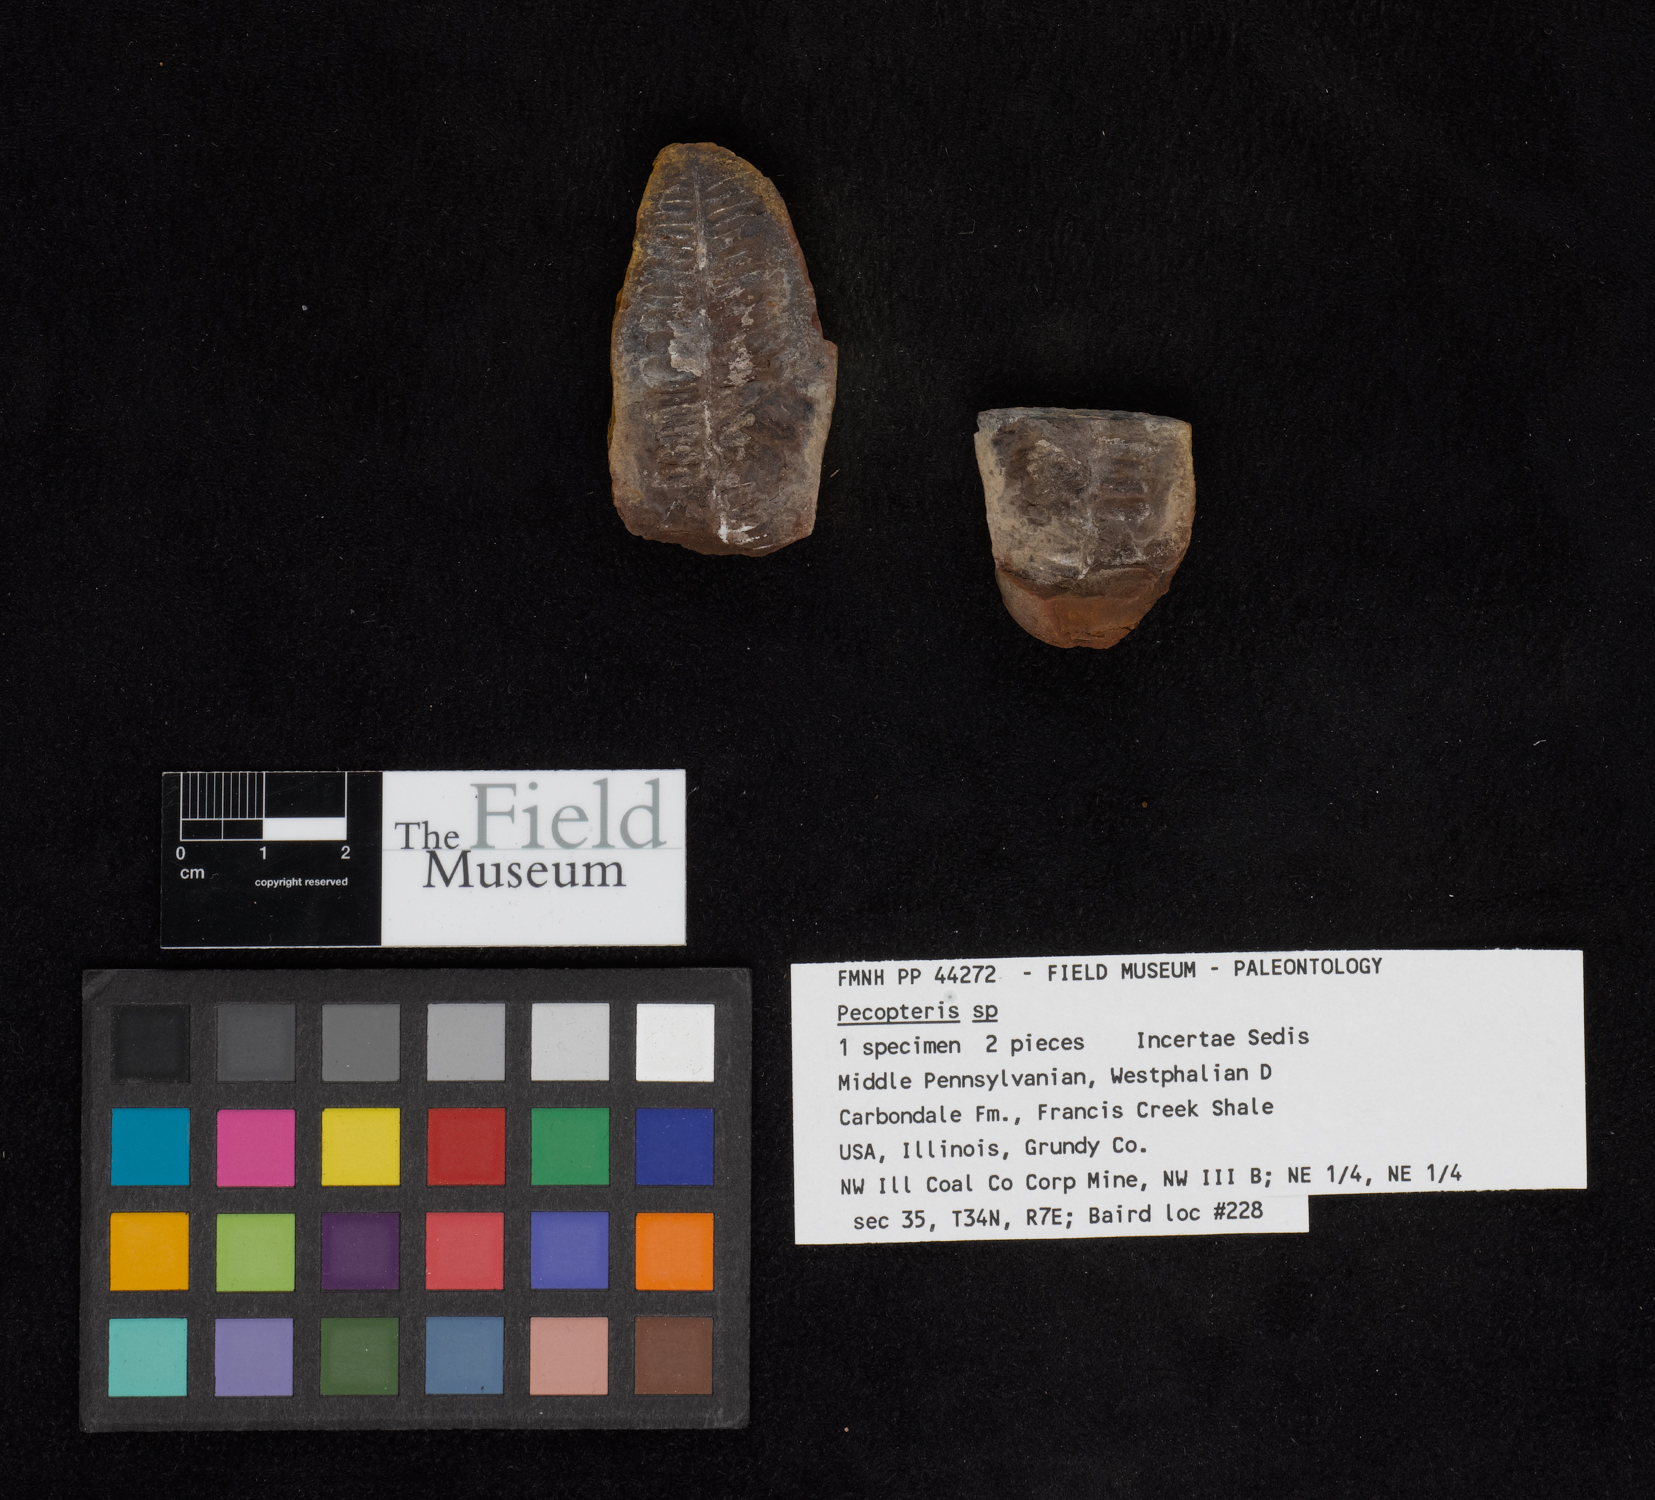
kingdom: Plantae
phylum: Tracheophyta
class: Polypodiopsida
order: Marattiales
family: Asterothecaceae
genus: Pecopteris
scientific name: Pecopteris
